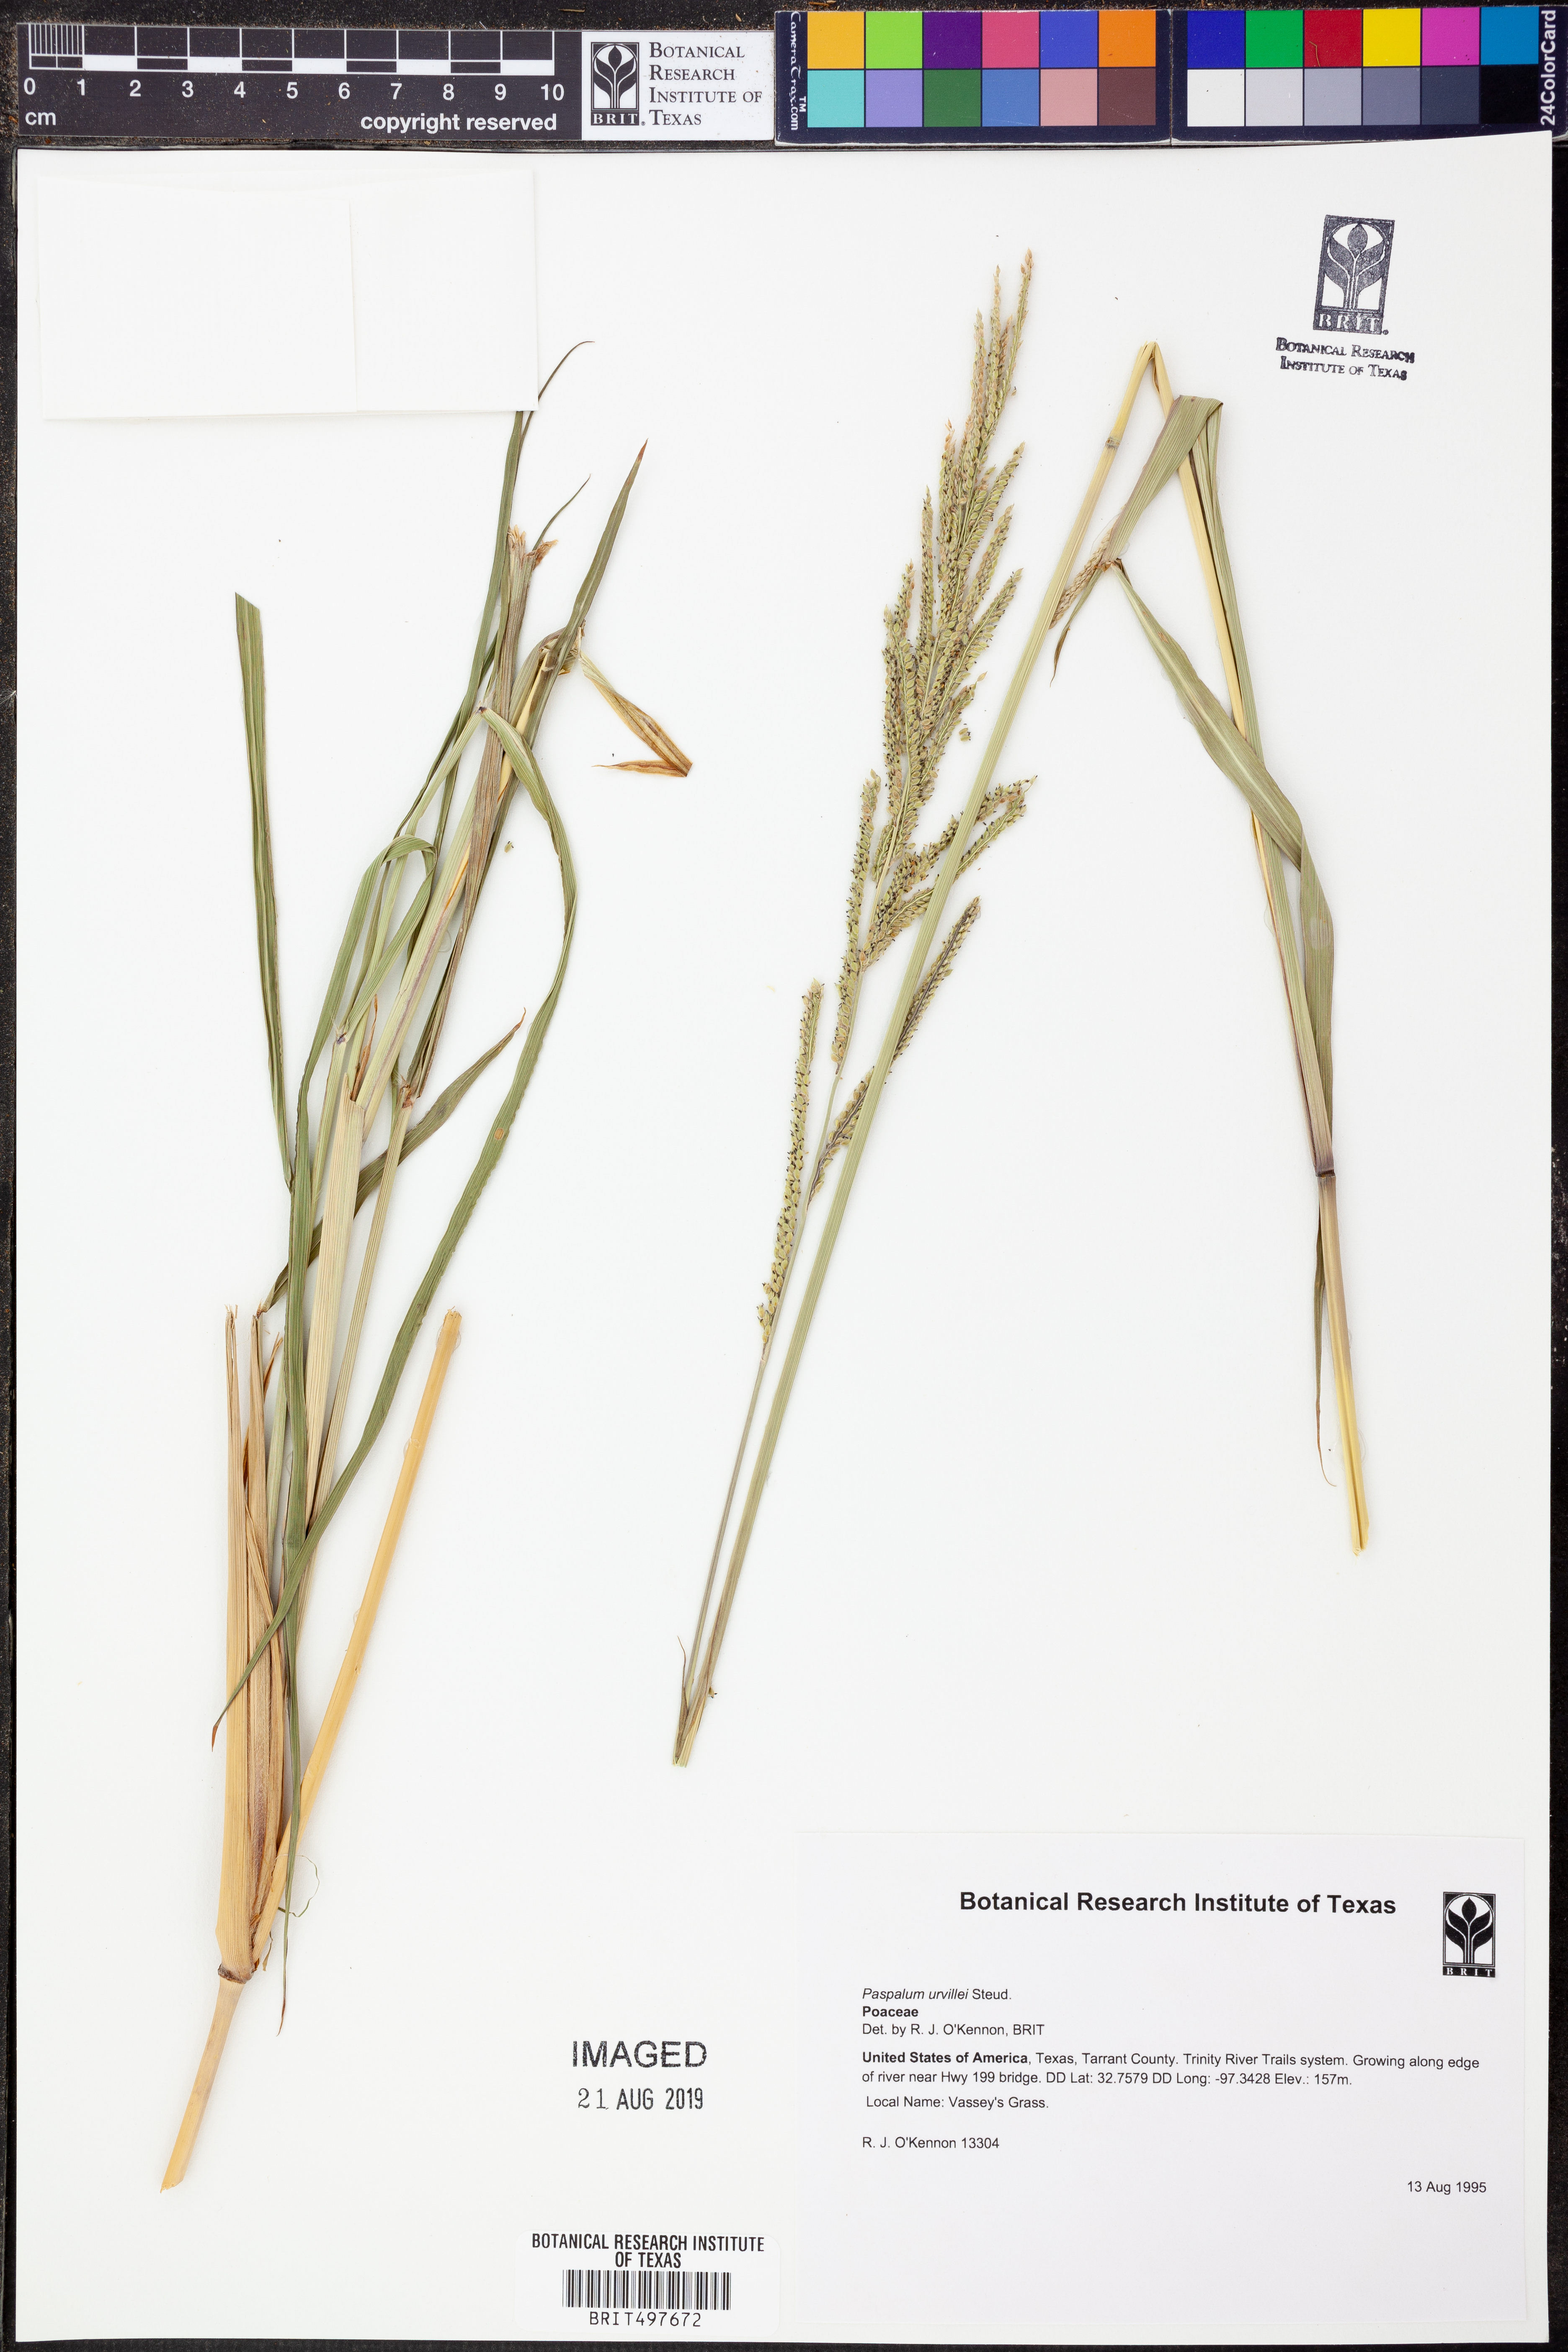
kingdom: Plantae
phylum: Tracheophyta
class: Liliopsida
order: Poales
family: Poaceae
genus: Paspalum
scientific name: Paspalum urvillei
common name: Vasey's grass
